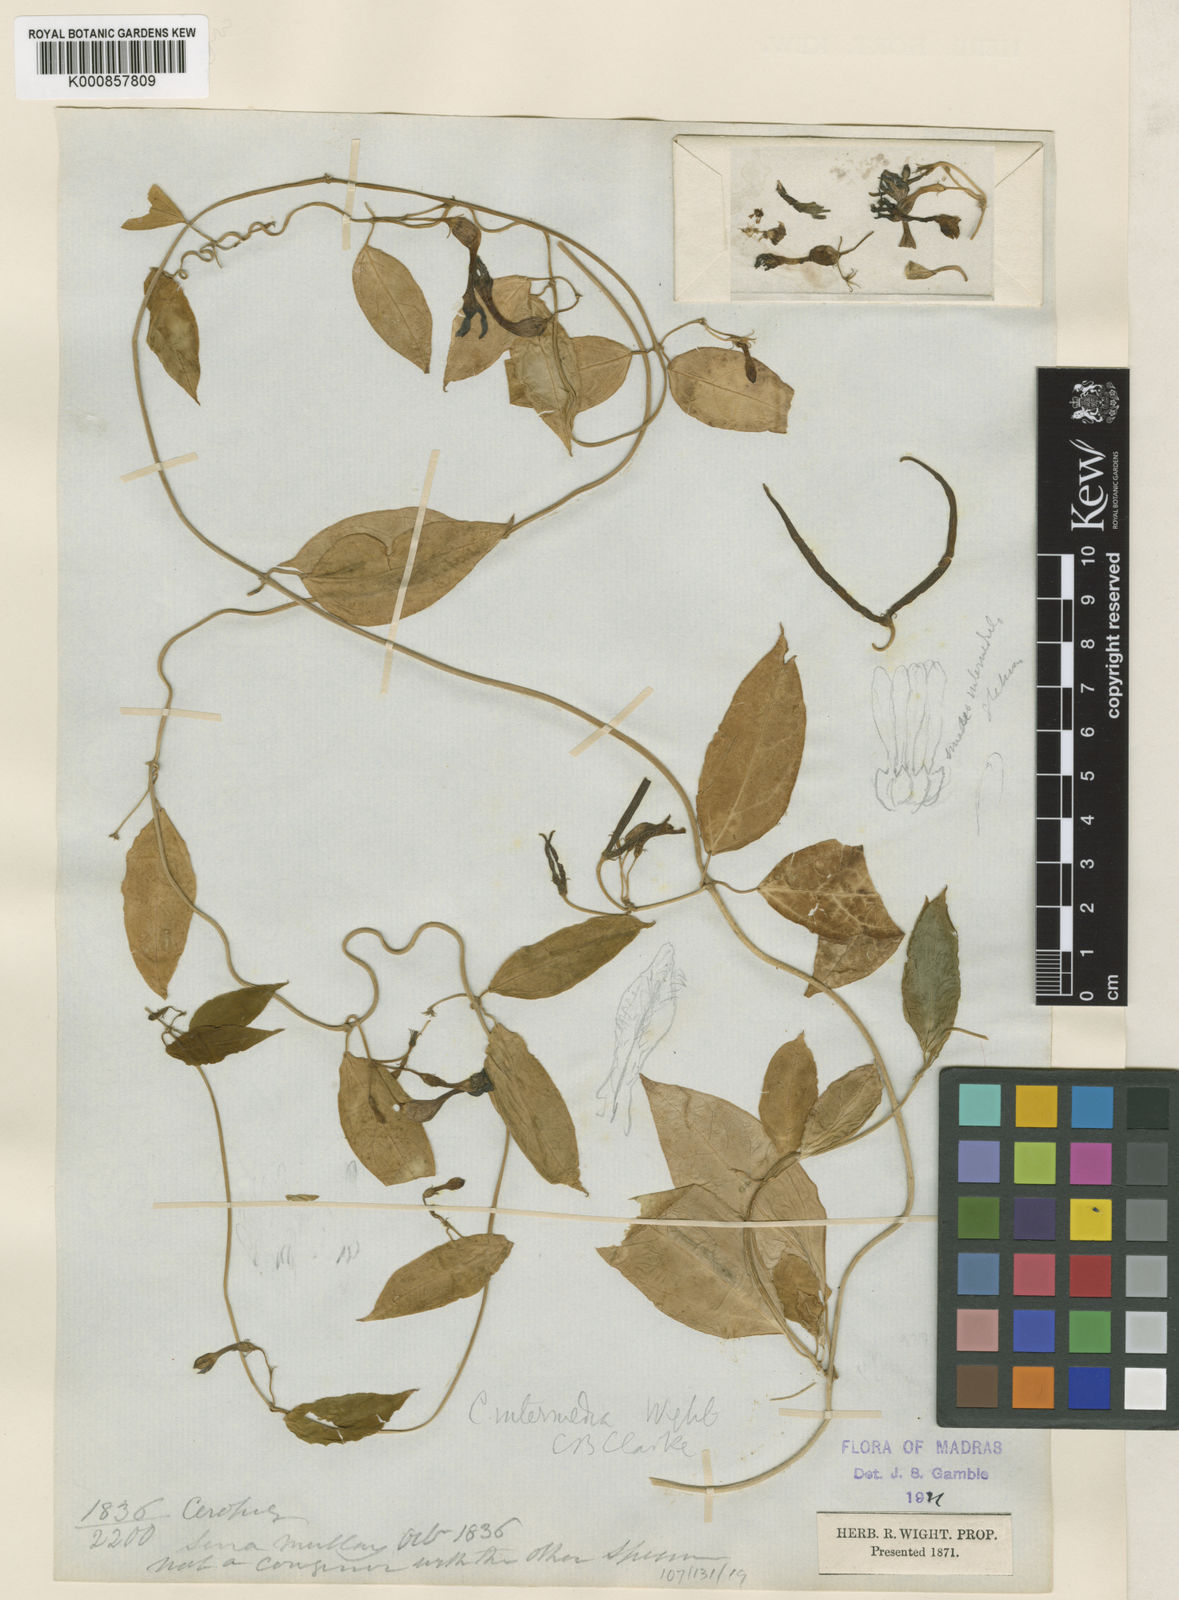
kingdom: Plantae
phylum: Tracheophyta
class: Magnoliopsida
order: Gentianales
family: Apocynaceae
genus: Ceropegia
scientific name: Ceropegia intermedia
